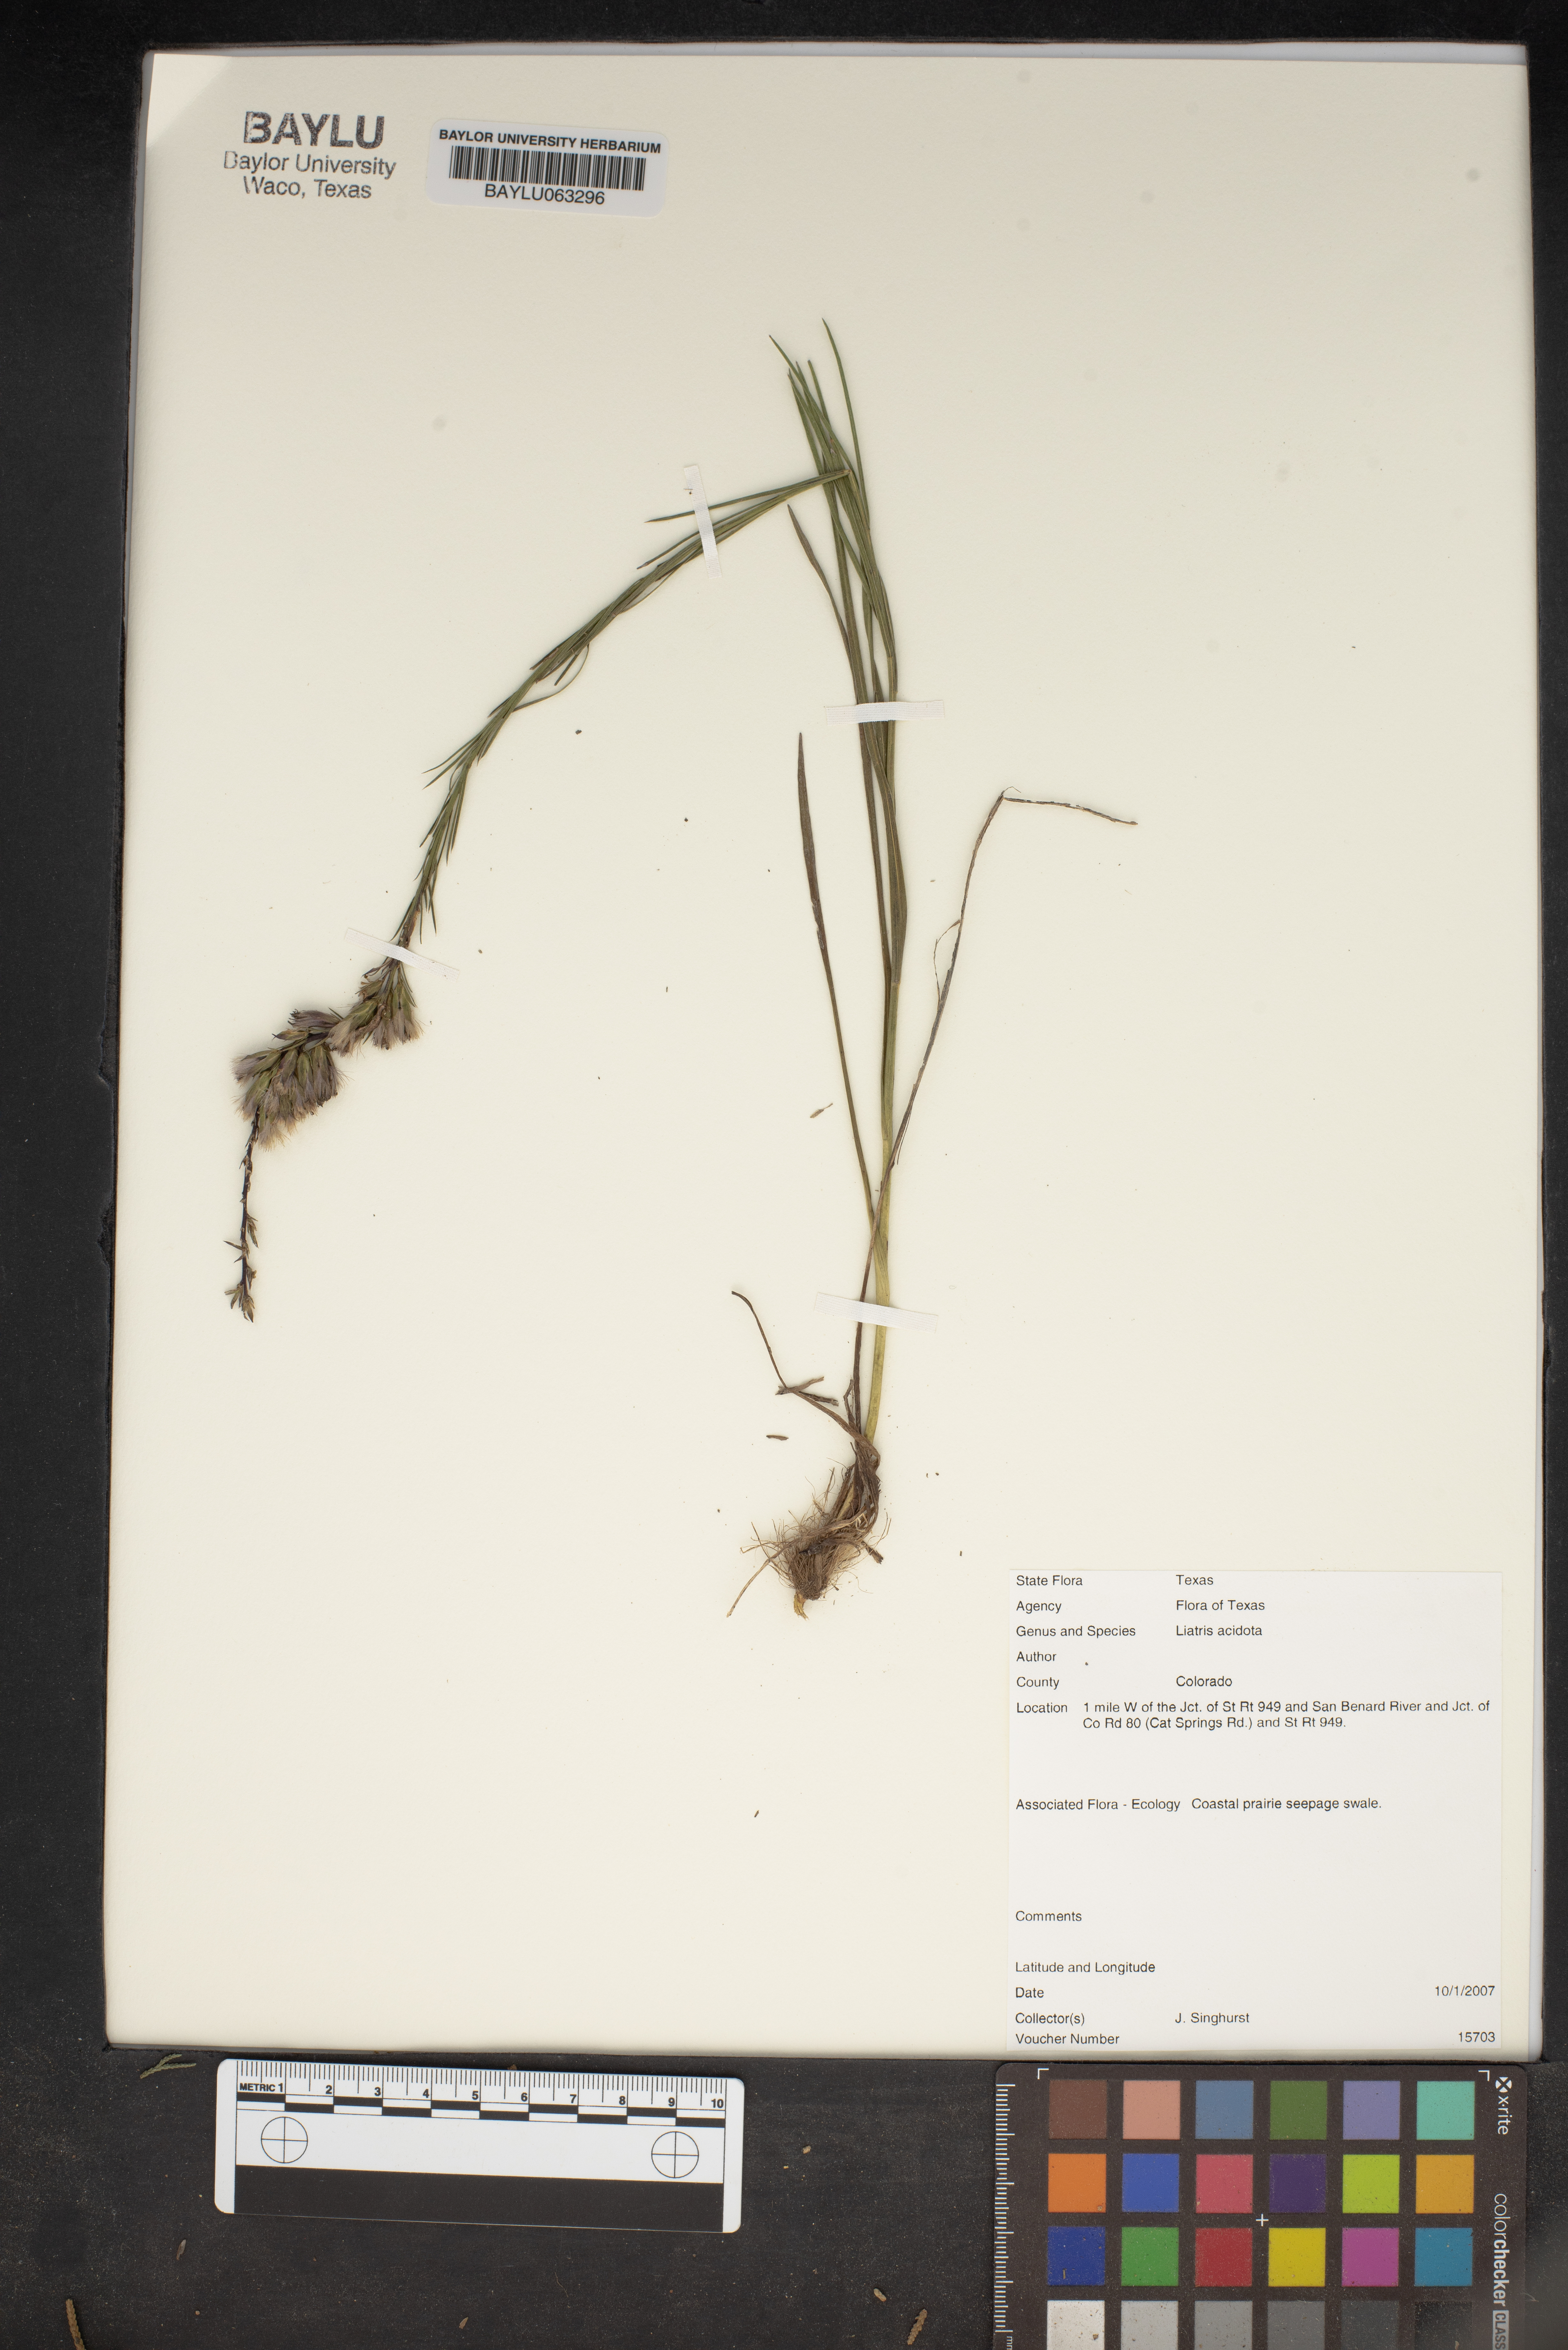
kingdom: Plantae
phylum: Tracheophyta
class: Magnoliopsida
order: Asterales
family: Asteraceae
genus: Liatris
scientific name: Liatris acidota
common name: Gulf coast gayfeather
